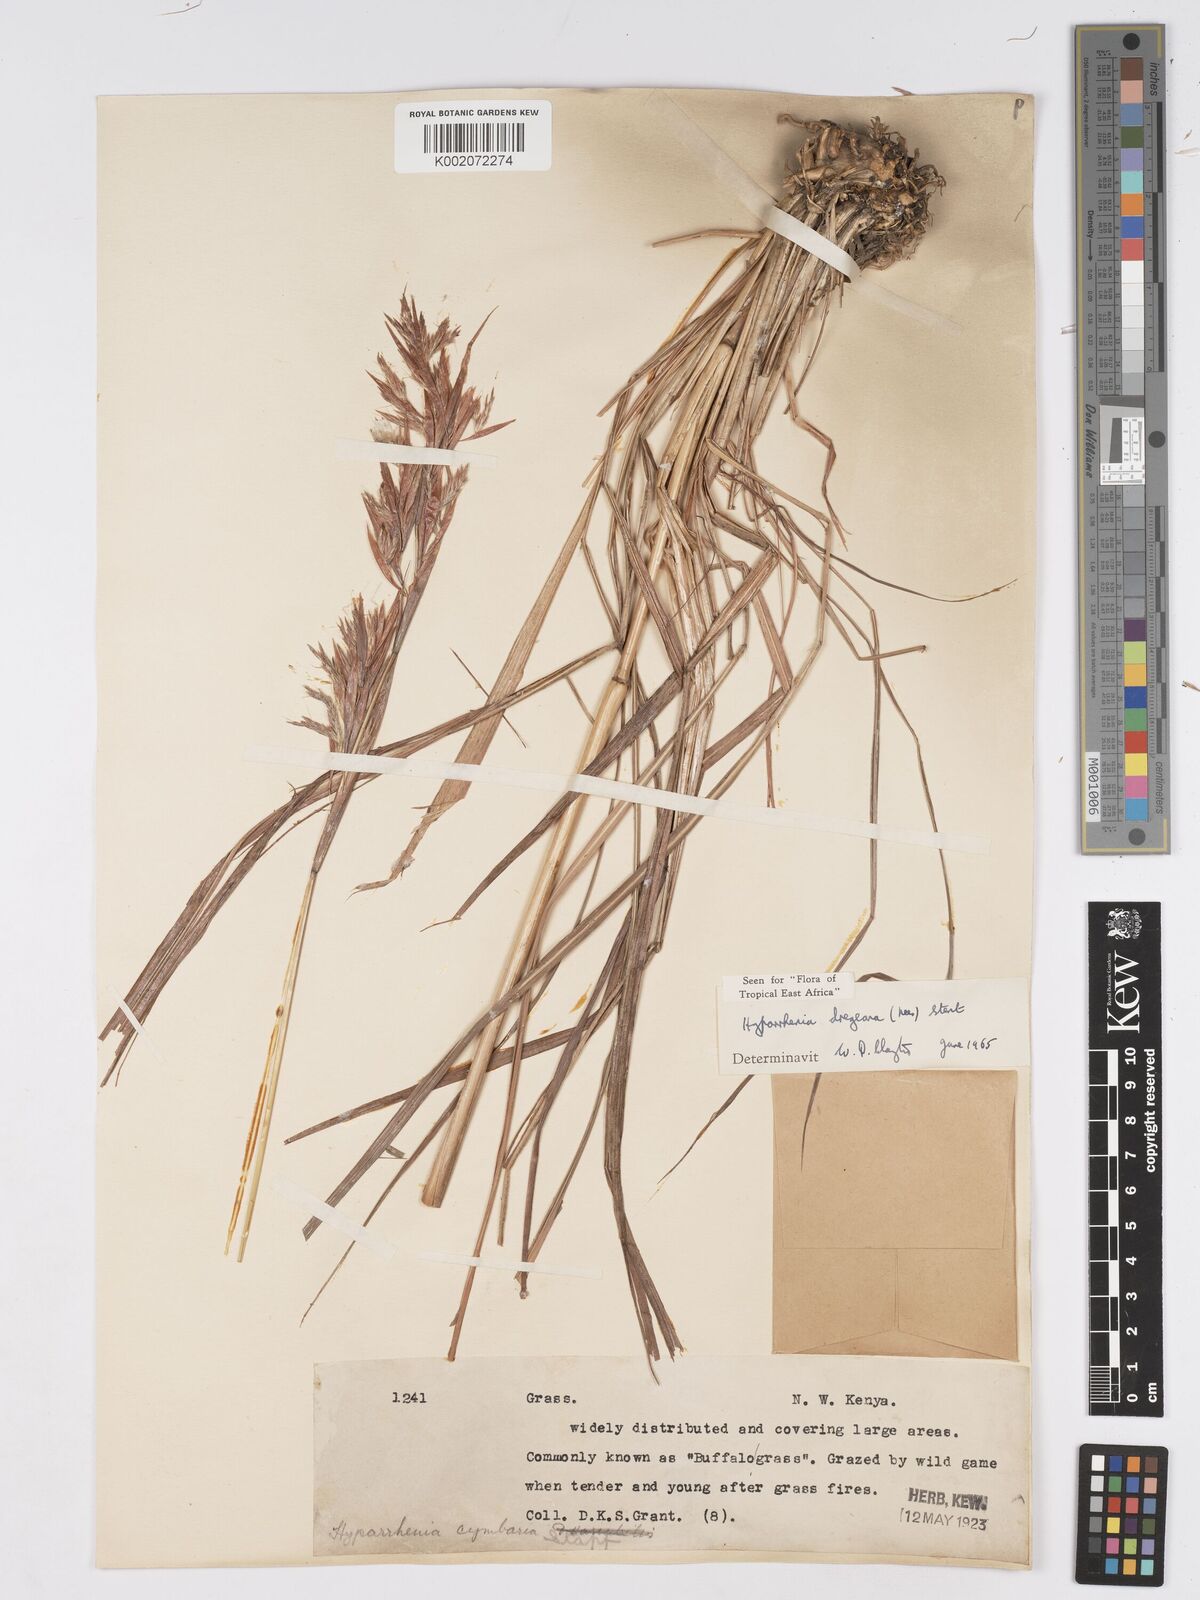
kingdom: Plantae
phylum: Tracheophyta
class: Liliopsida
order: Poales
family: Poaceae
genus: Hyparrhenia
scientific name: Hyparrhenia dregeana
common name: Silky thatching grass
